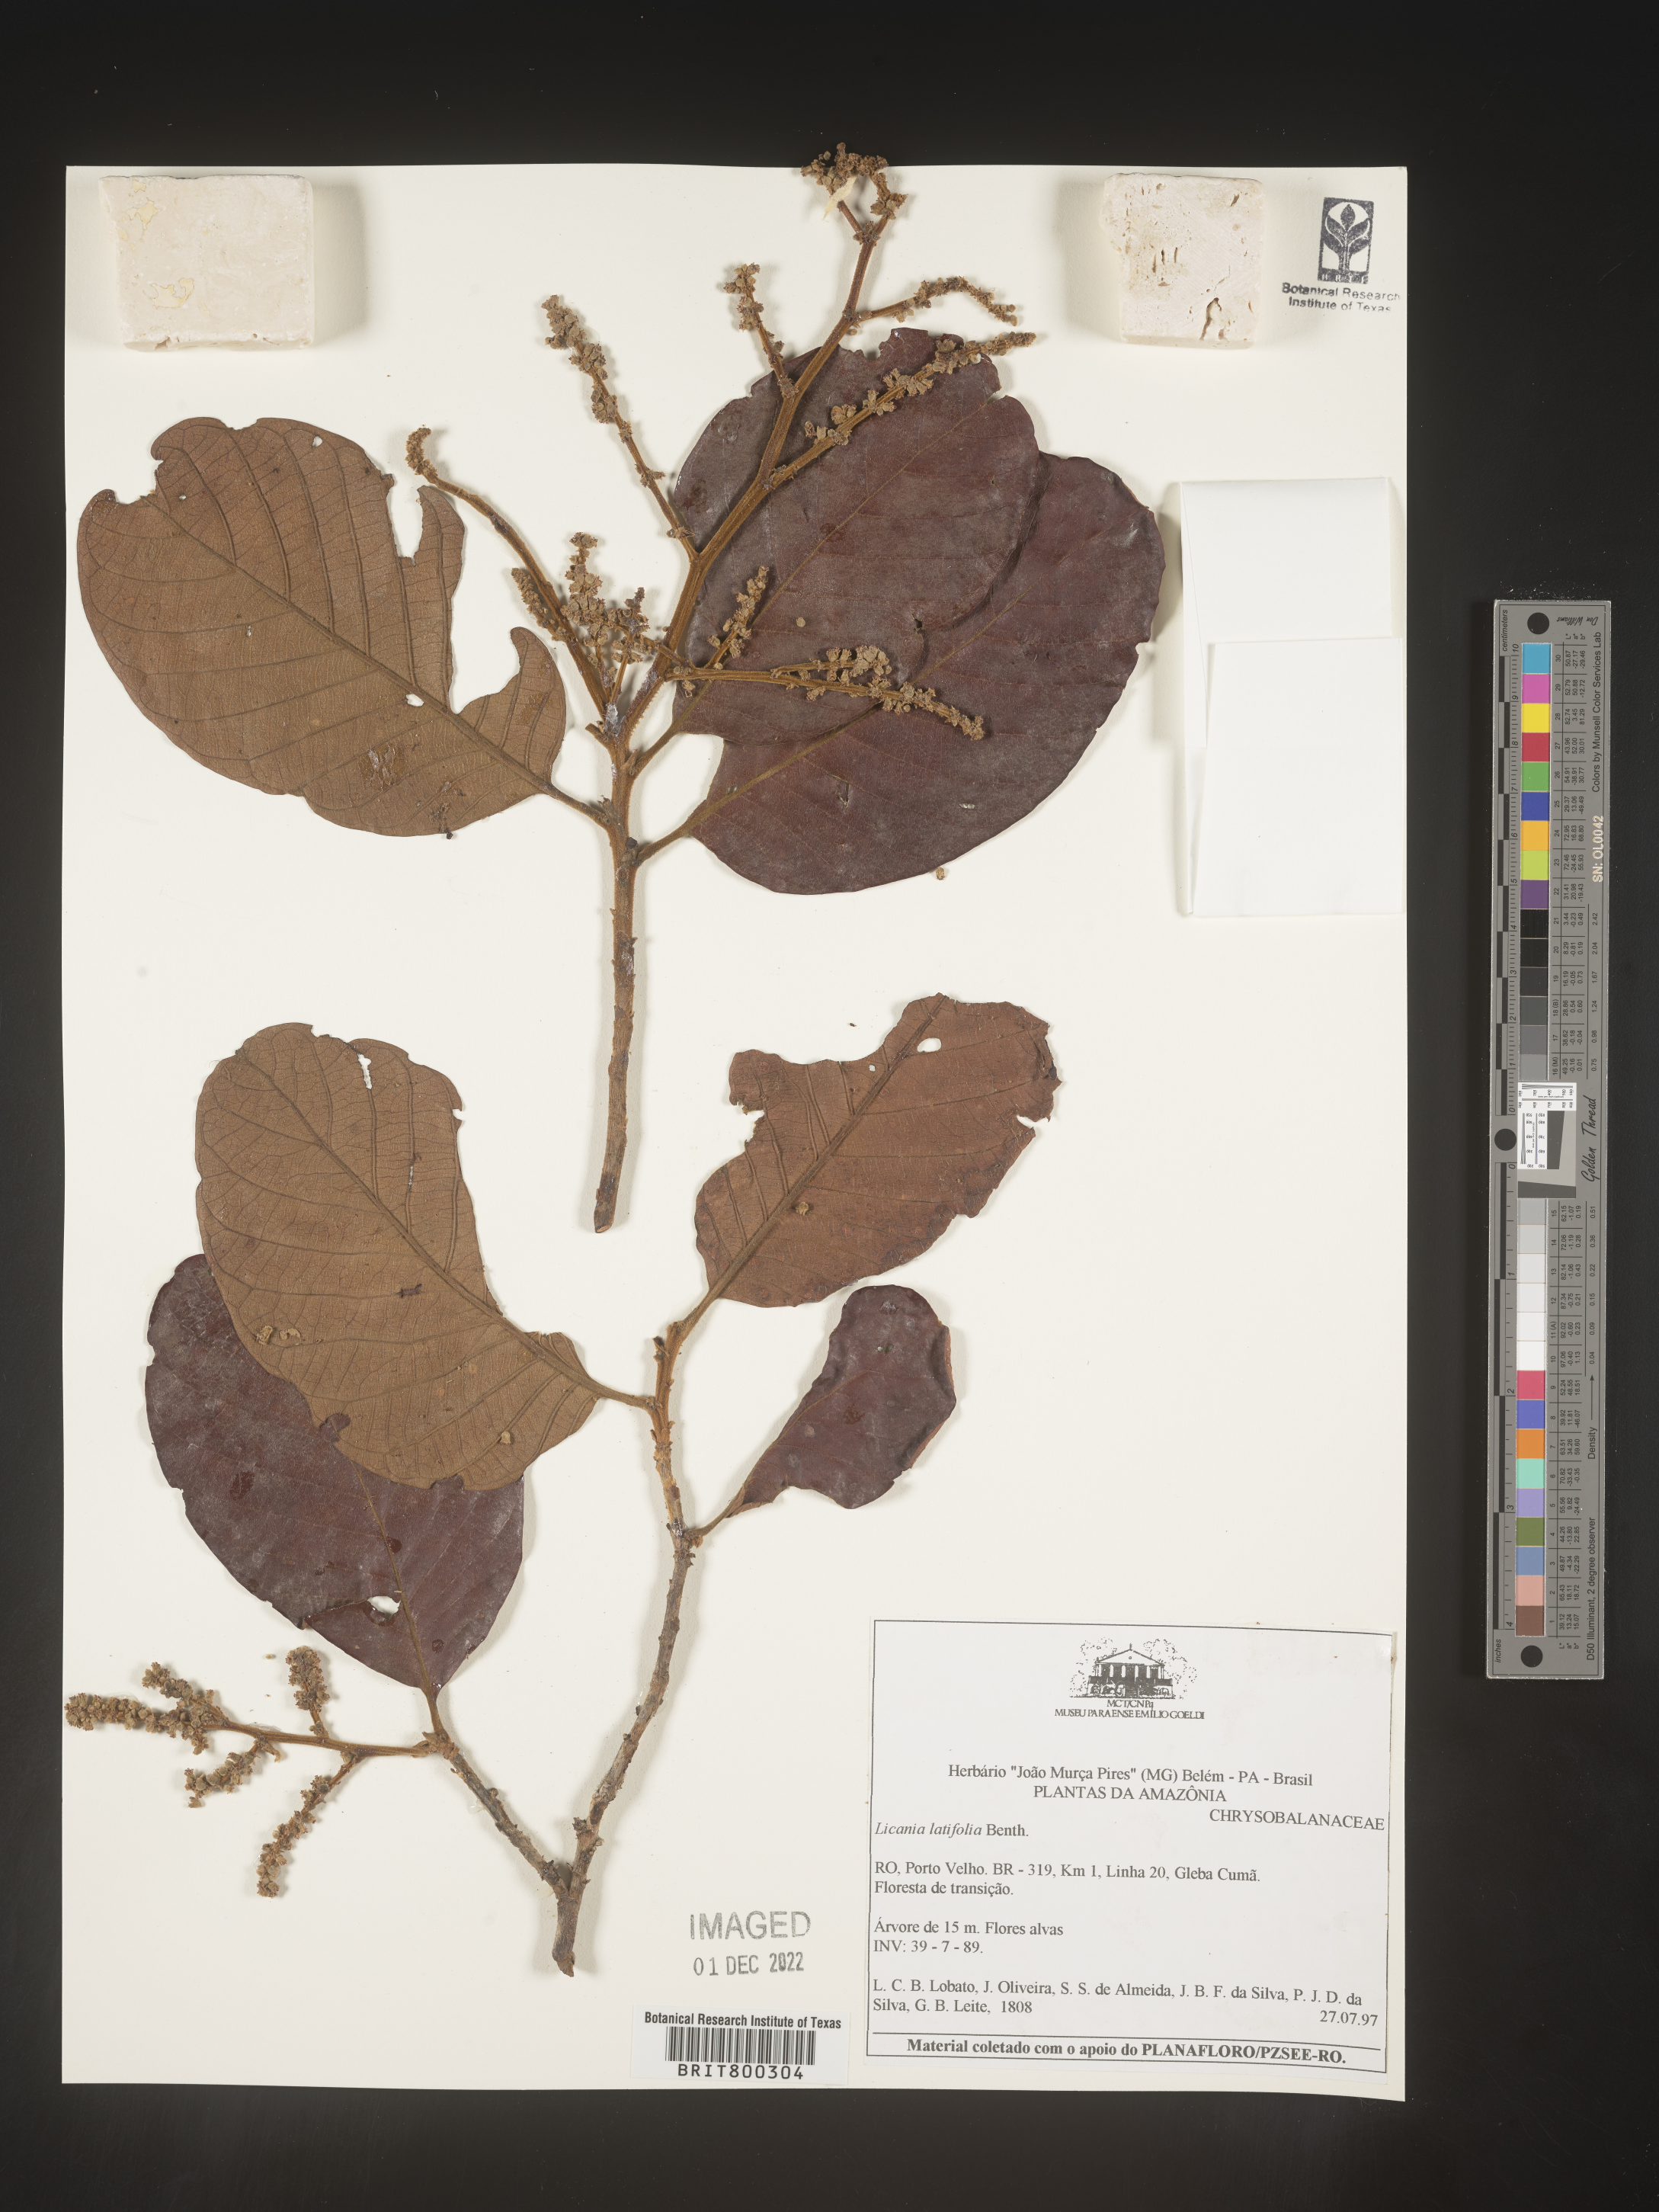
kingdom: Plantae
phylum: Tracheophyta
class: Magnoliopsida
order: Malpighiales
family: Chrysobalanaceae
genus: Licania
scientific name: Licania
